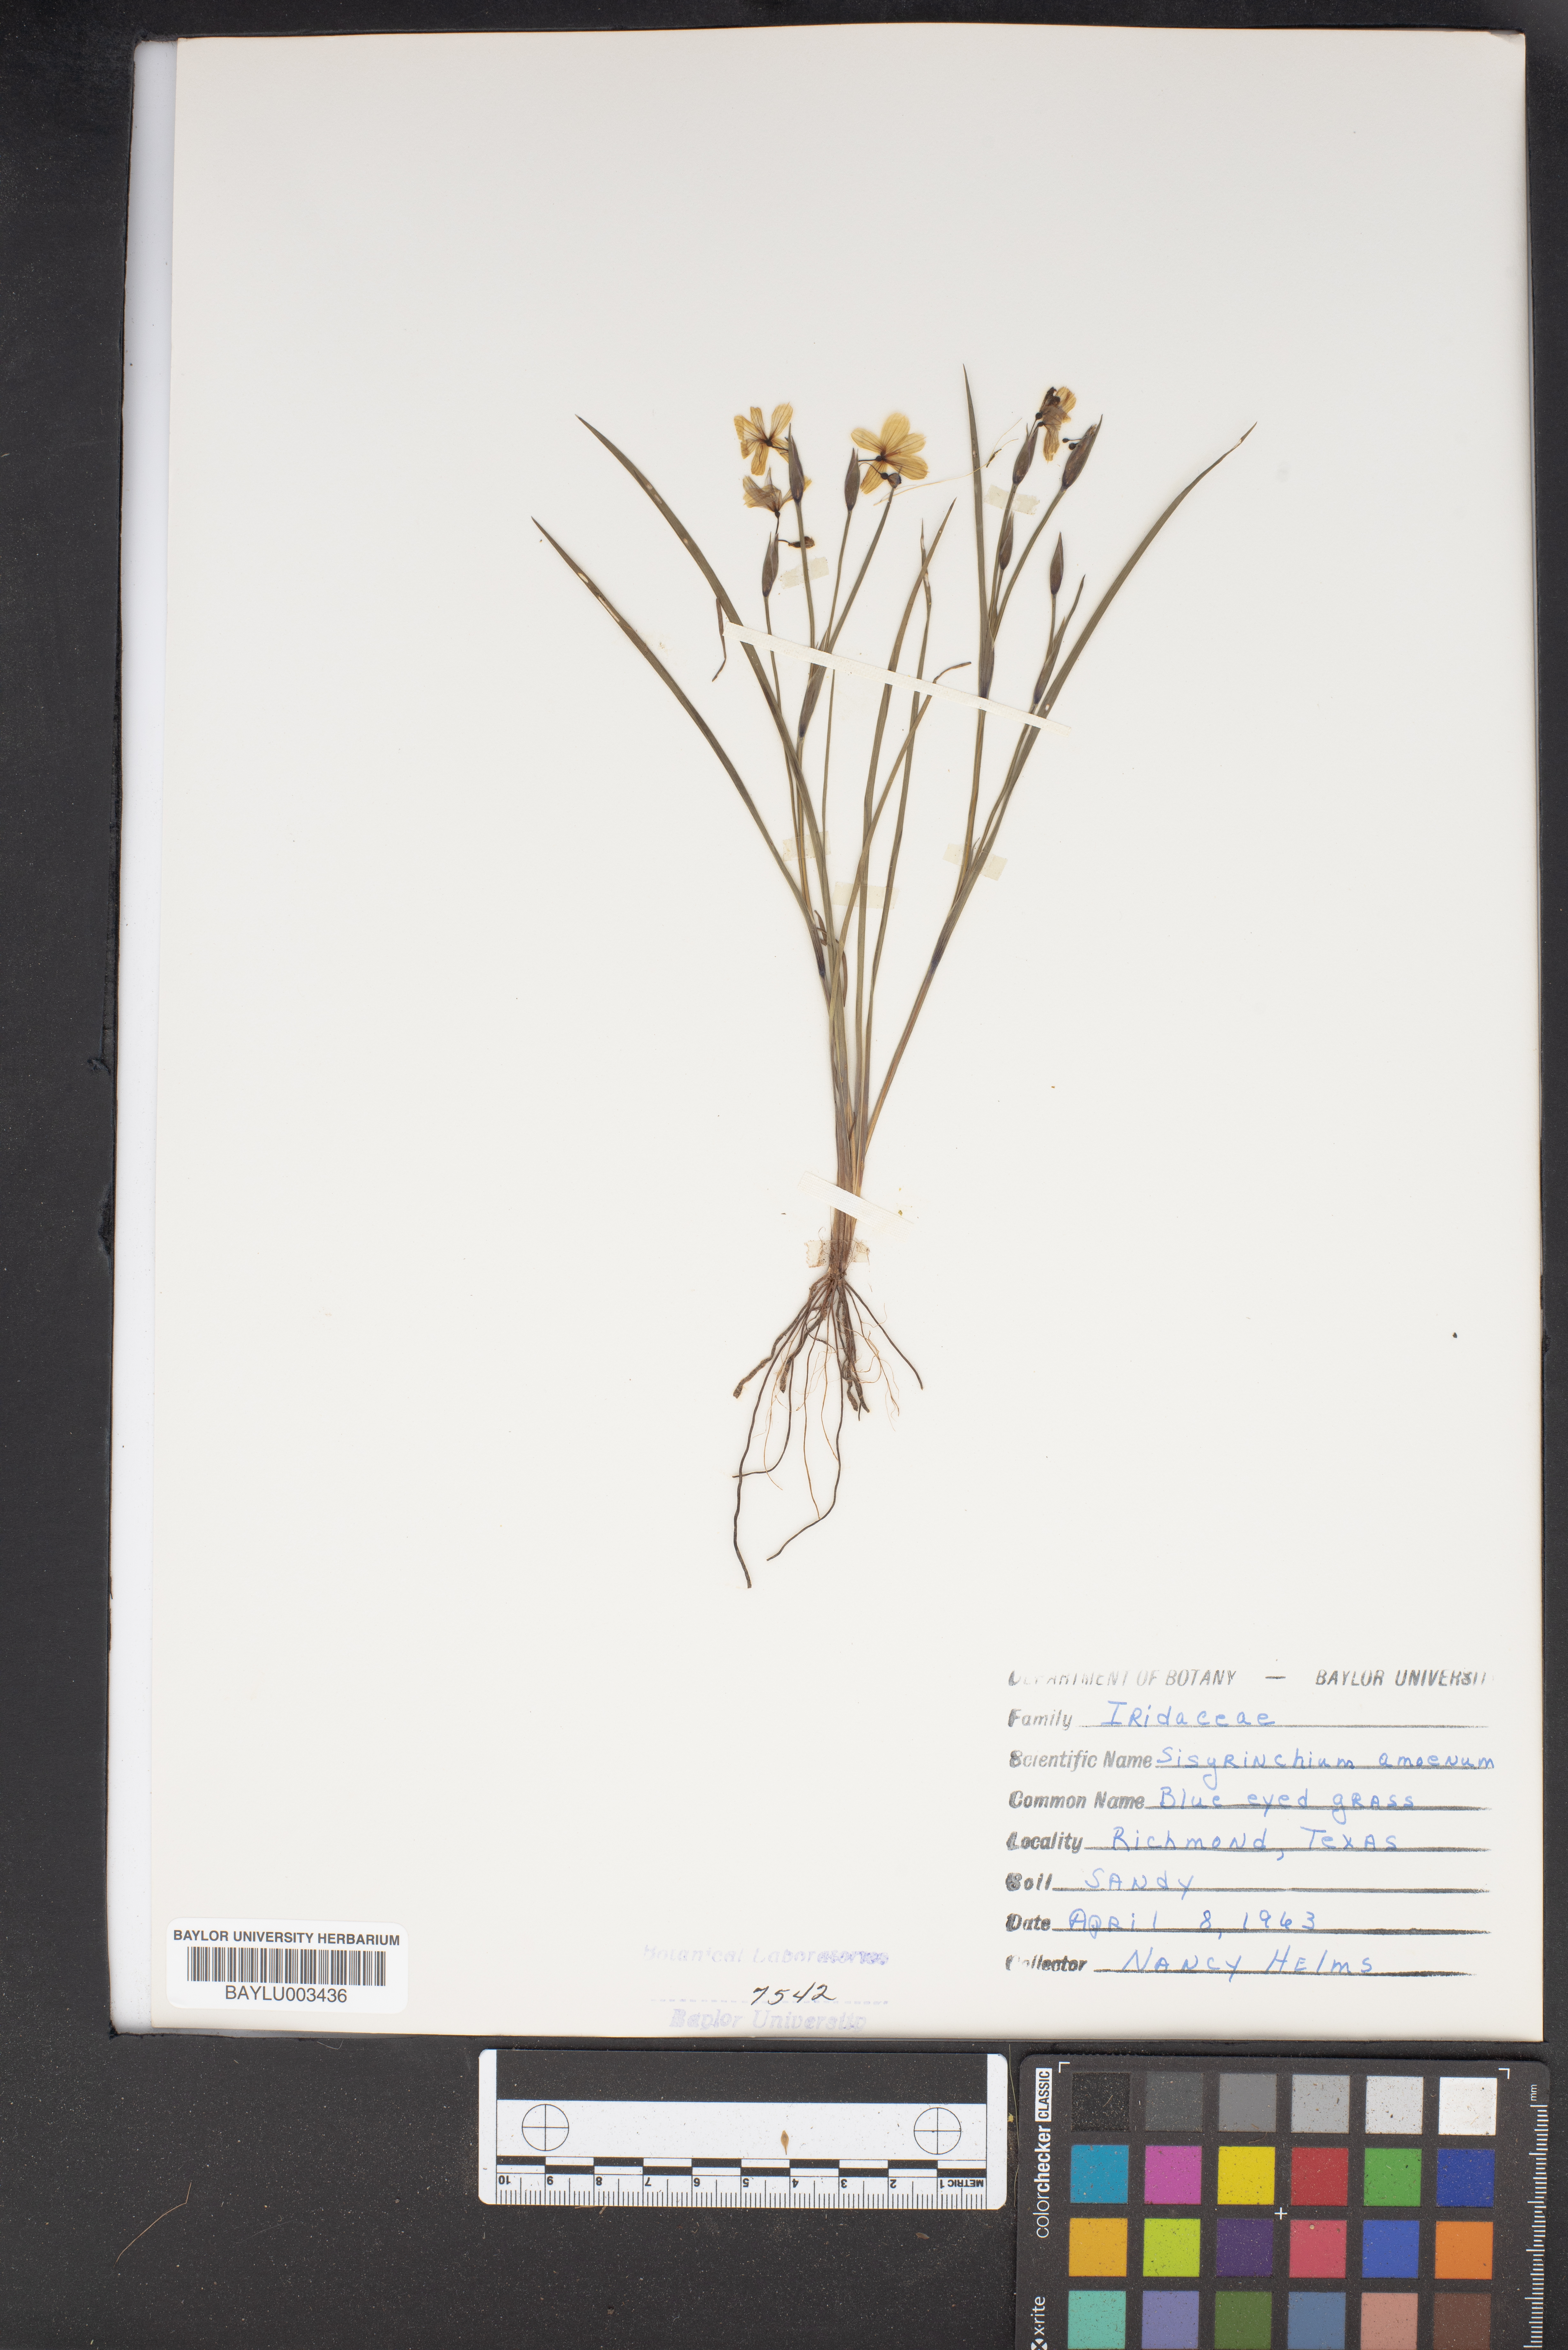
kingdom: Plantae
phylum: Tracheophyta
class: Liliopsida
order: Asparagales
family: Iridaceae
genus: Sisyrinchium
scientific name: Sisyrinchium ensigerum
